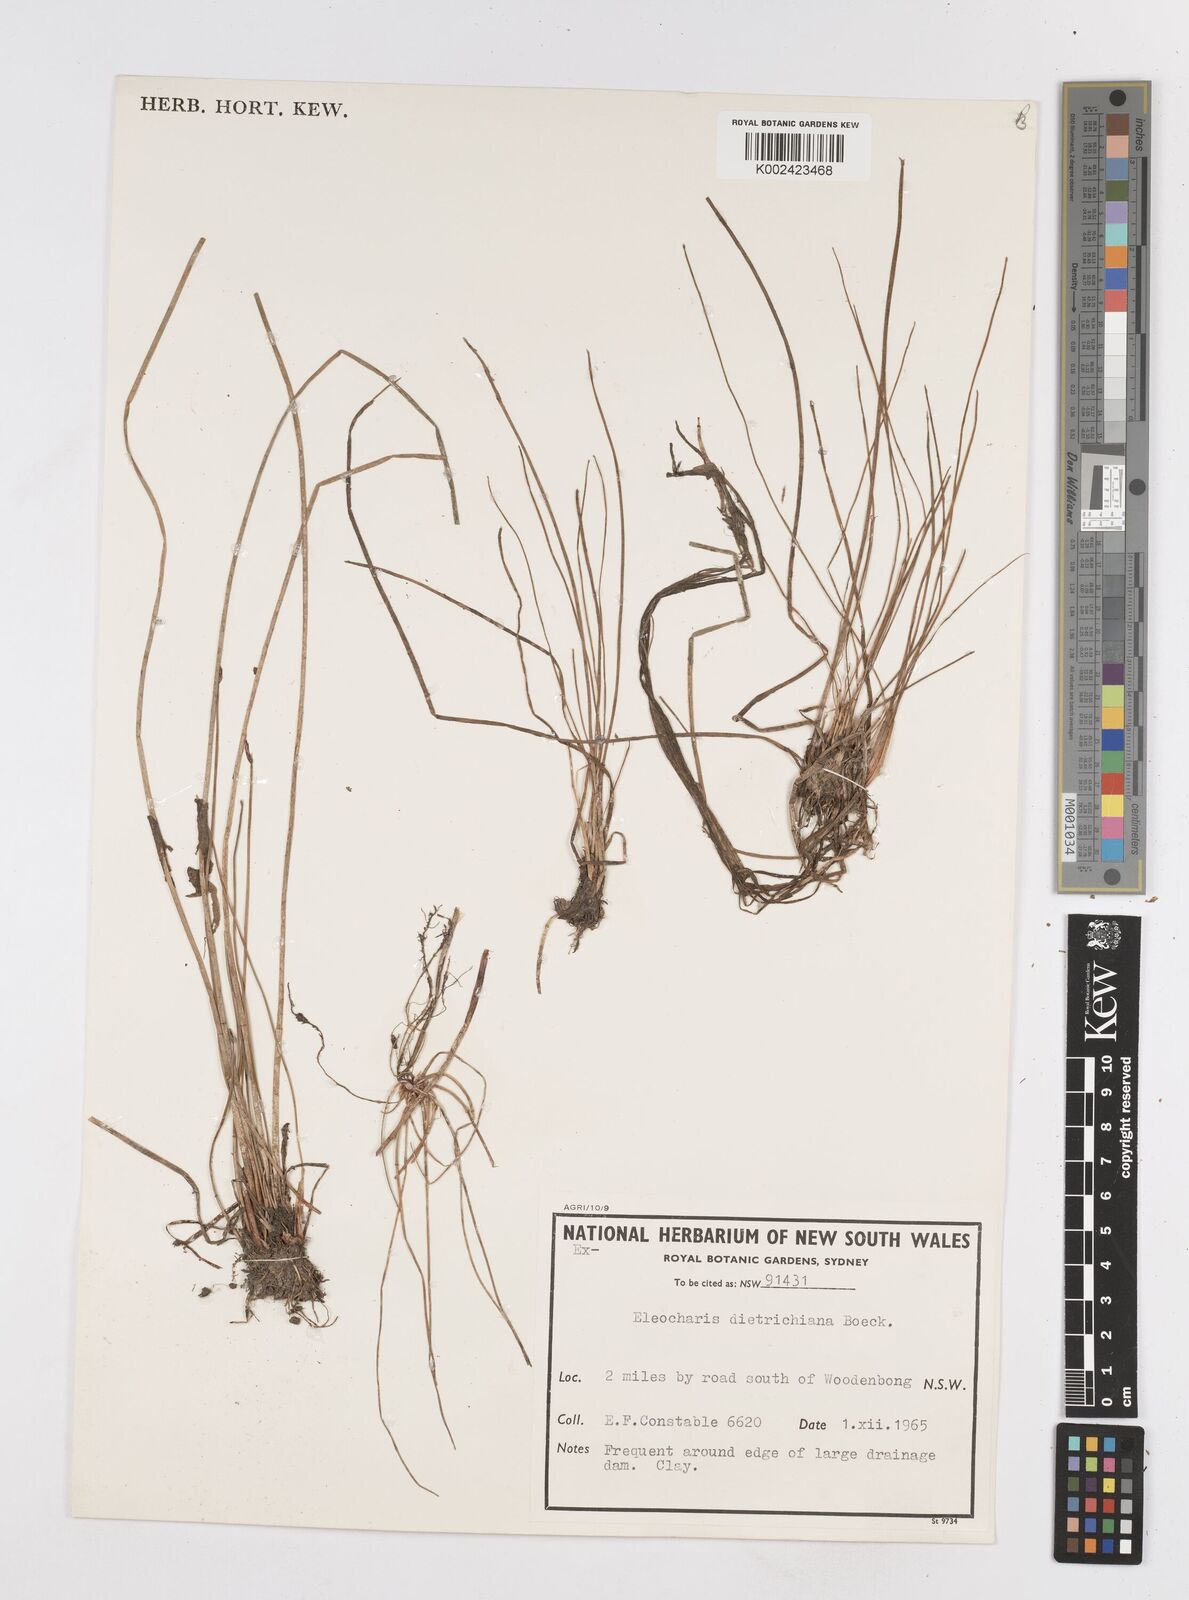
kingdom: Plantae
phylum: Tracheophyta
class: Liliopsida
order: Poales
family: Cyperaceae
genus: Eleocharis
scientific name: Eleocharis dietrichiana
